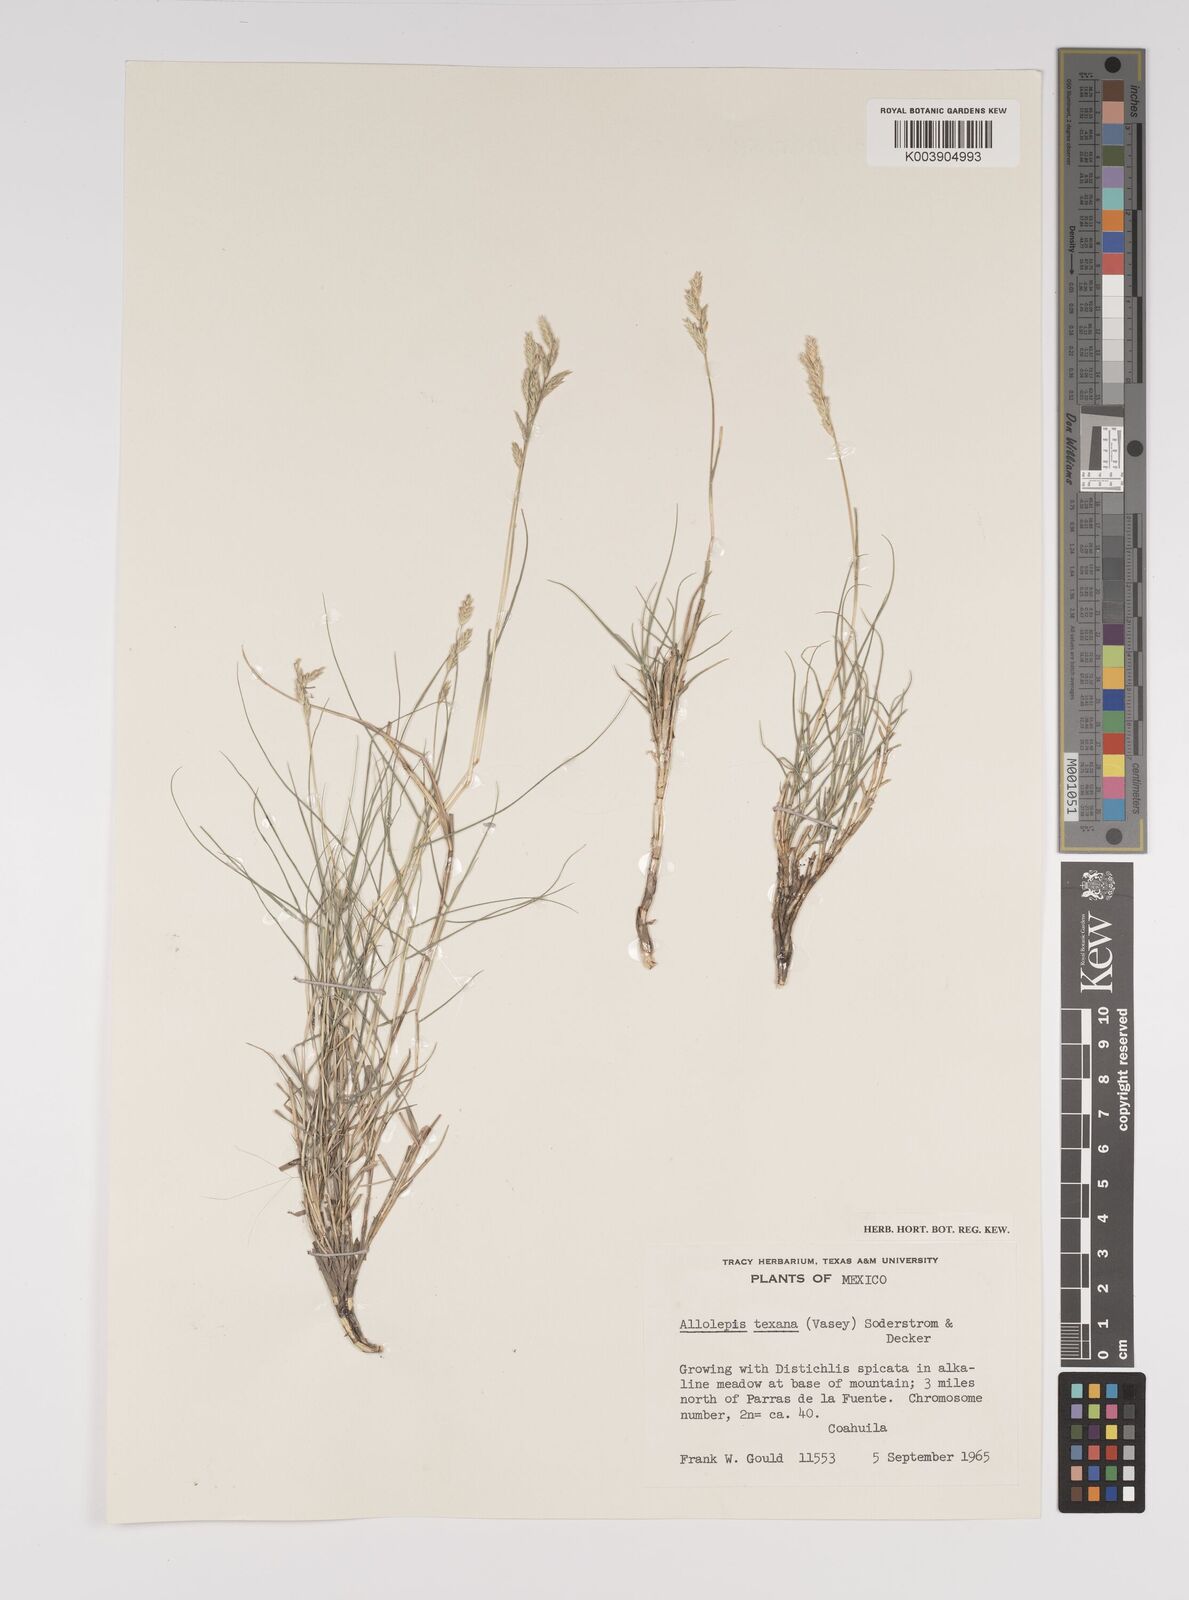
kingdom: Plantae
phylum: Tracheophyta
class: Liliopsida
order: Poales
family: Poaceae
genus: Distichlis
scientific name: Distichlis spicata
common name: Saltgrass
